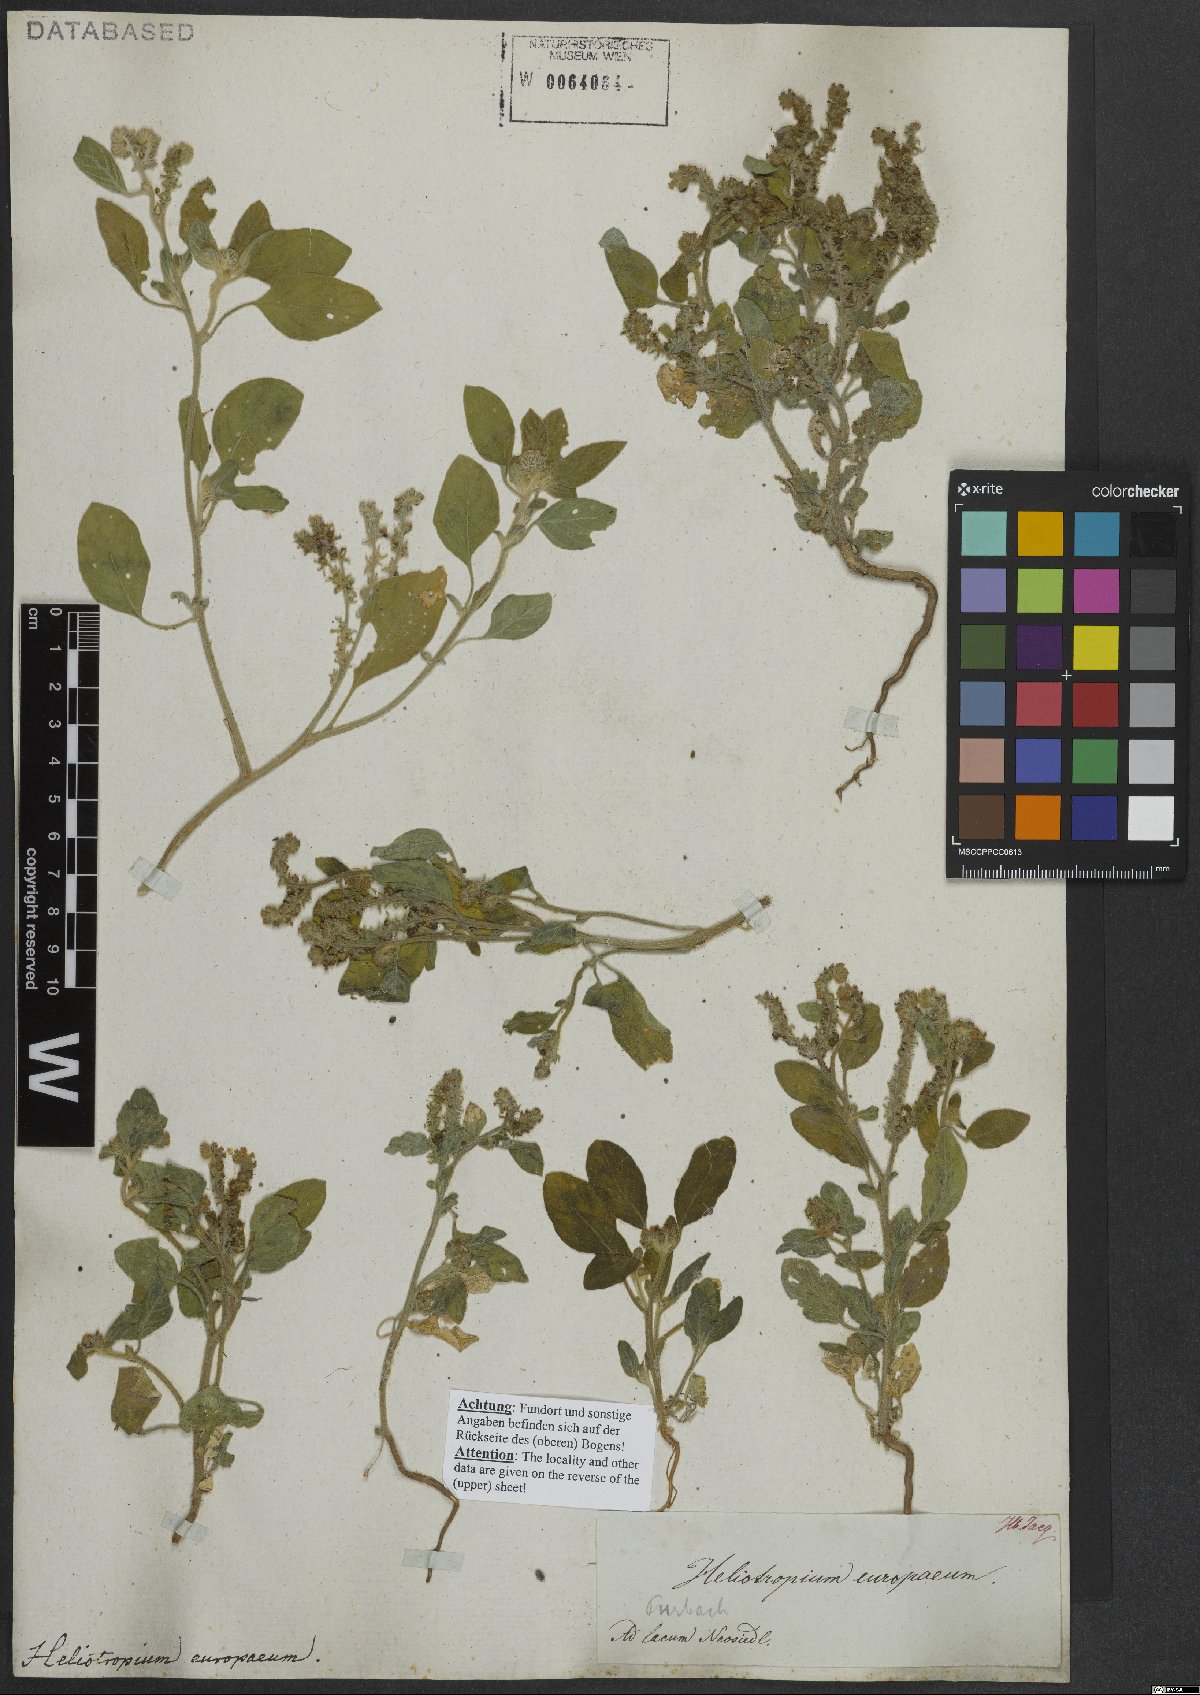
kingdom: Plantae
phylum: Tracheophyta
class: Magnoliopsida
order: Boraginales
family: Heliotropiaceae
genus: Heliotropium
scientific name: Heliotropium europaeum
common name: European heliotrope
